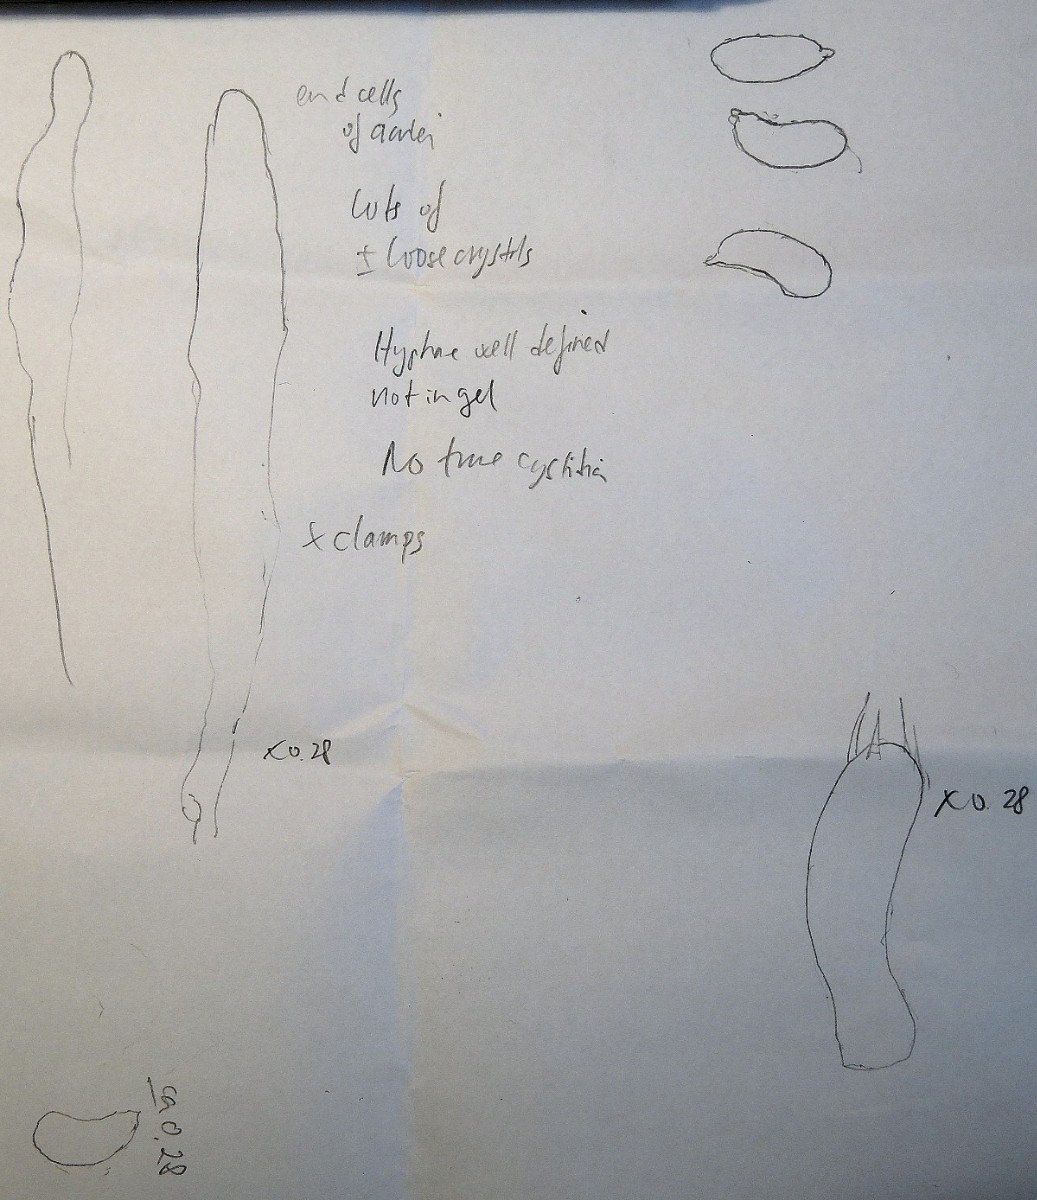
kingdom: Fungi
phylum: Basidiomycota
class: Agaricomycetes
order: Polyporales
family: Meruliaceae
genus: Mycoacia
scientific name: Mycoacia aurea
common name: lang vokspig
